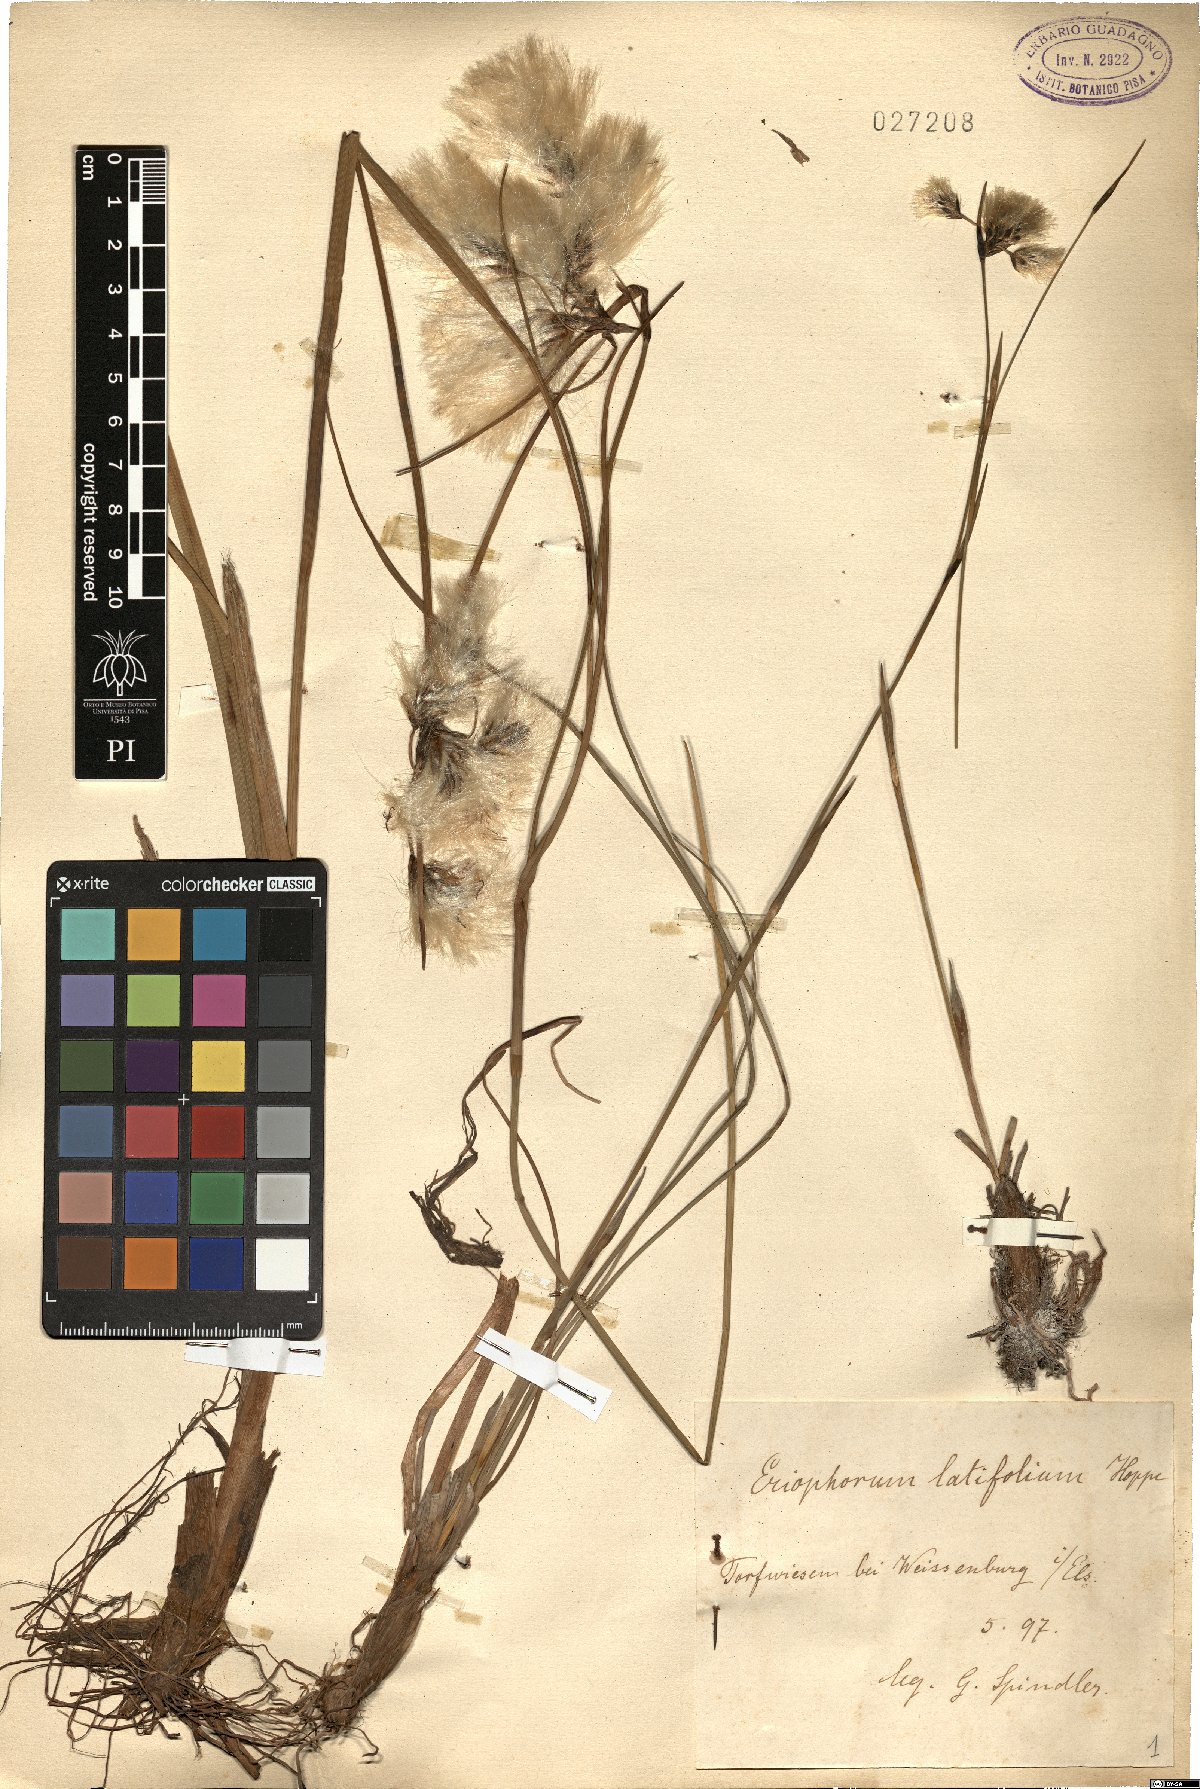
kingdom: Plantae
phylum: Tracheophyta
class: Liliopsida
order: Poales
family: Cyperaceae
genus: Eriophorum
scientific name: Eriophorum latifolium
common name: Broad-leaved cottongrass
